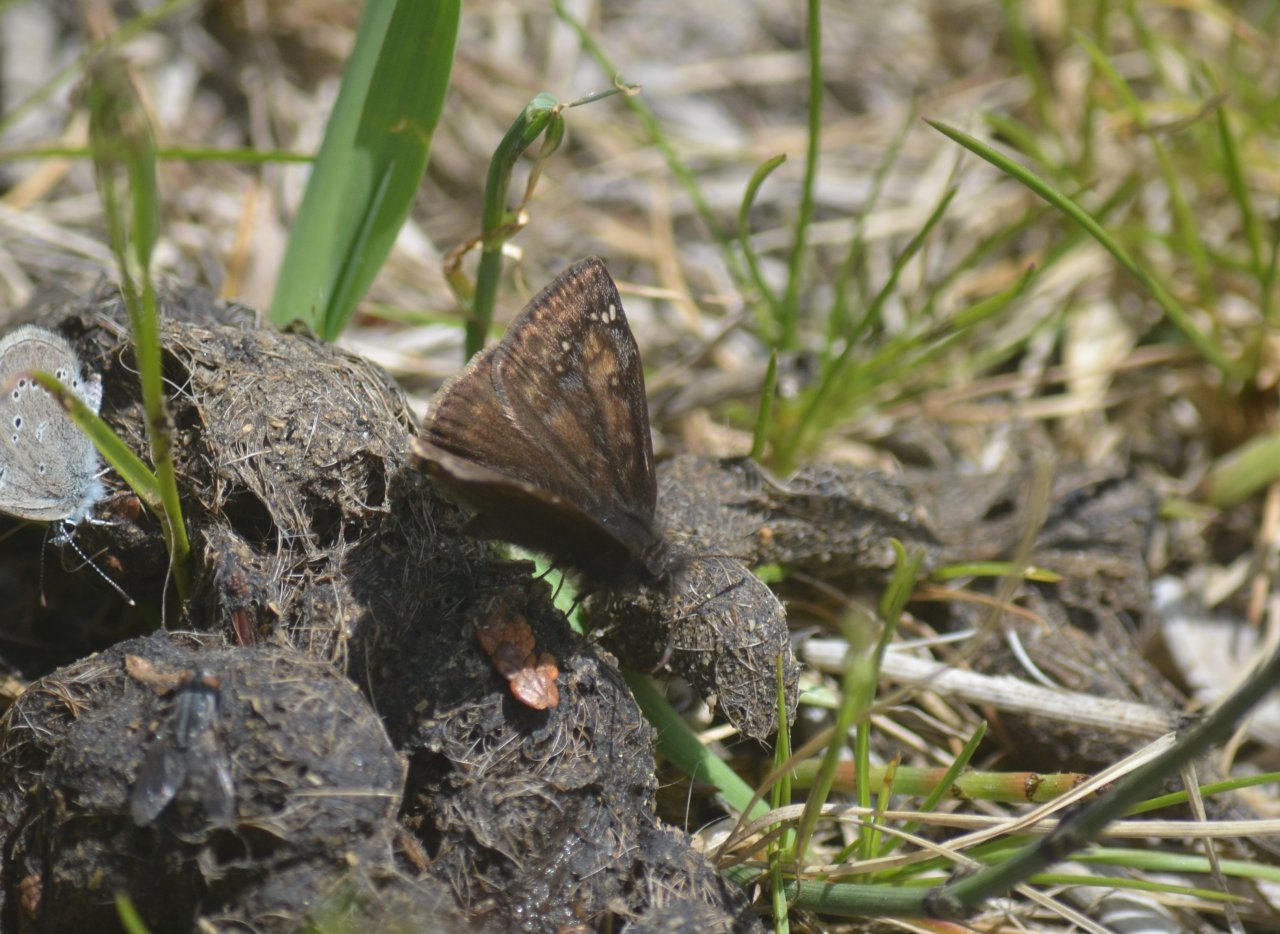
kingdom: Animalia
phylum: Arthropoda
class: Insecta
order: Lepidoptera
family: Hesperiidae
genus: Gesta
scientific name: Gesta
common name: Wild Indigo Duskywing
